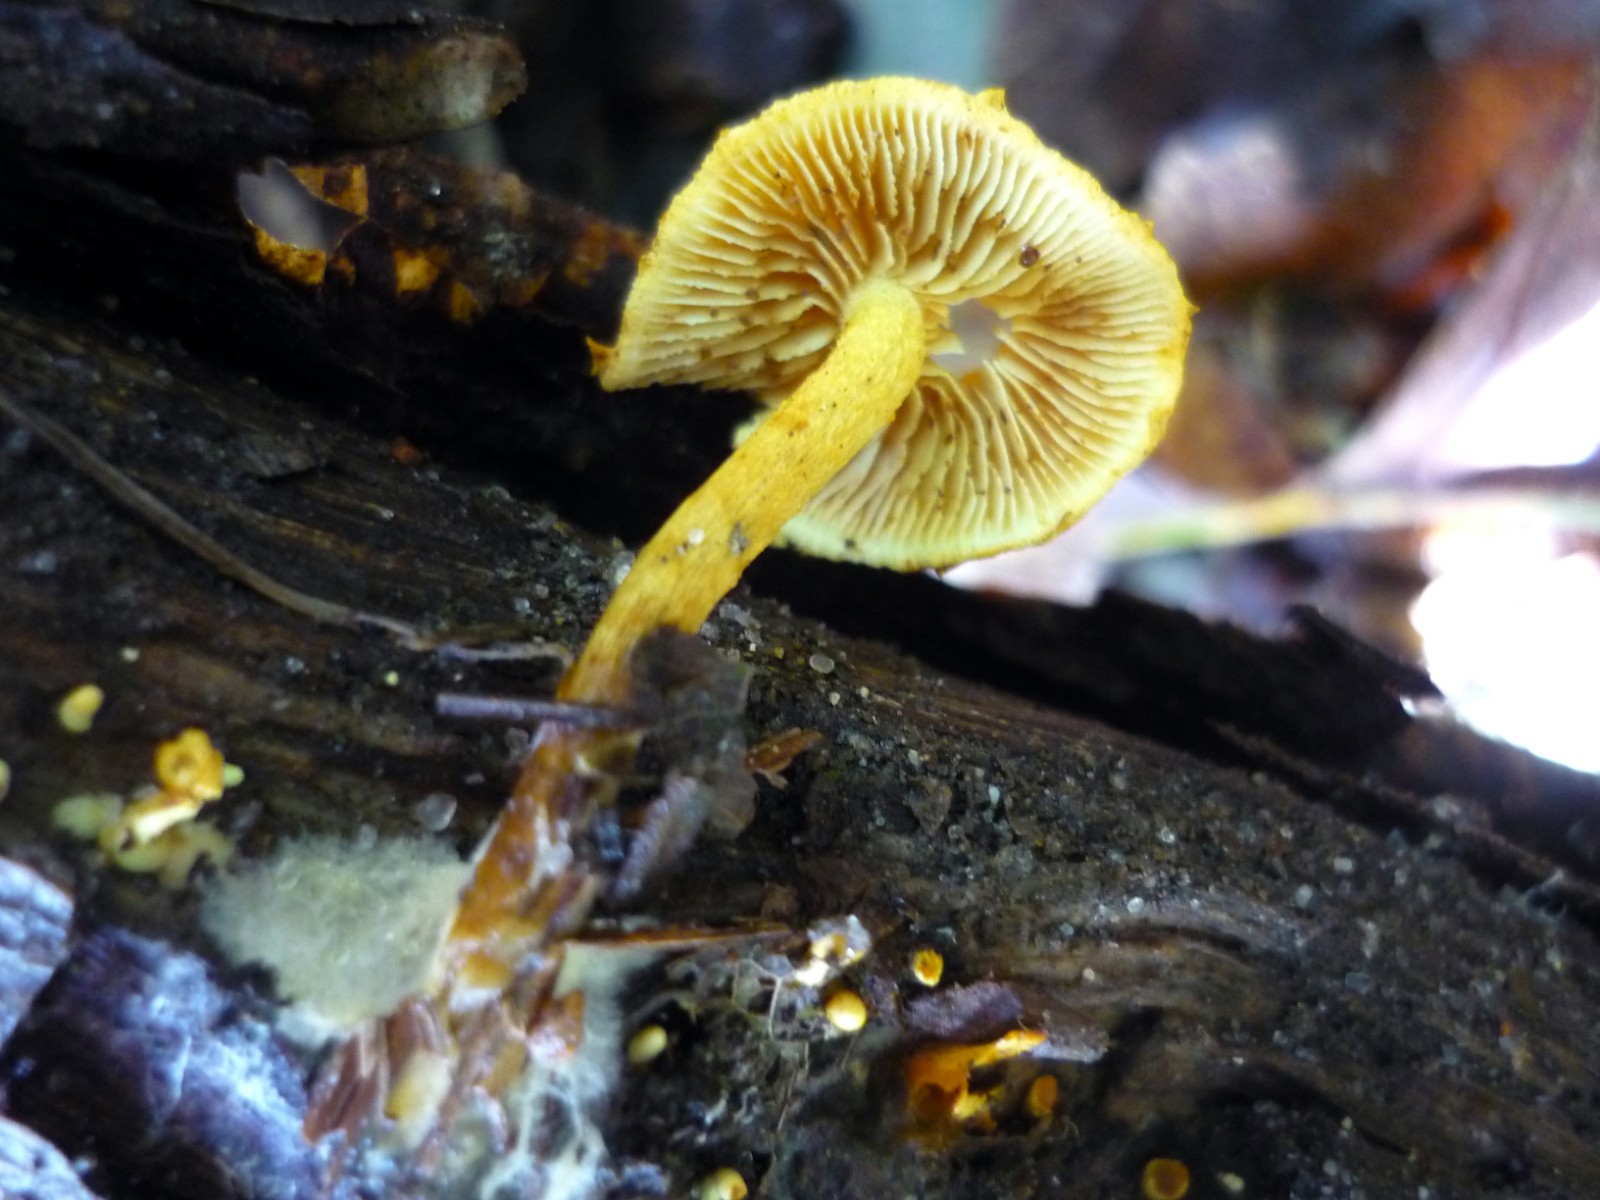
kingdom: Fungi
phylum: Basidiomycota
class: Agaricomycetes
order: Agaricales
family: Strophariaceae
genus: Pholiota
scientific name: Pholiota tuberculosa
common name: finskællet skælhat
